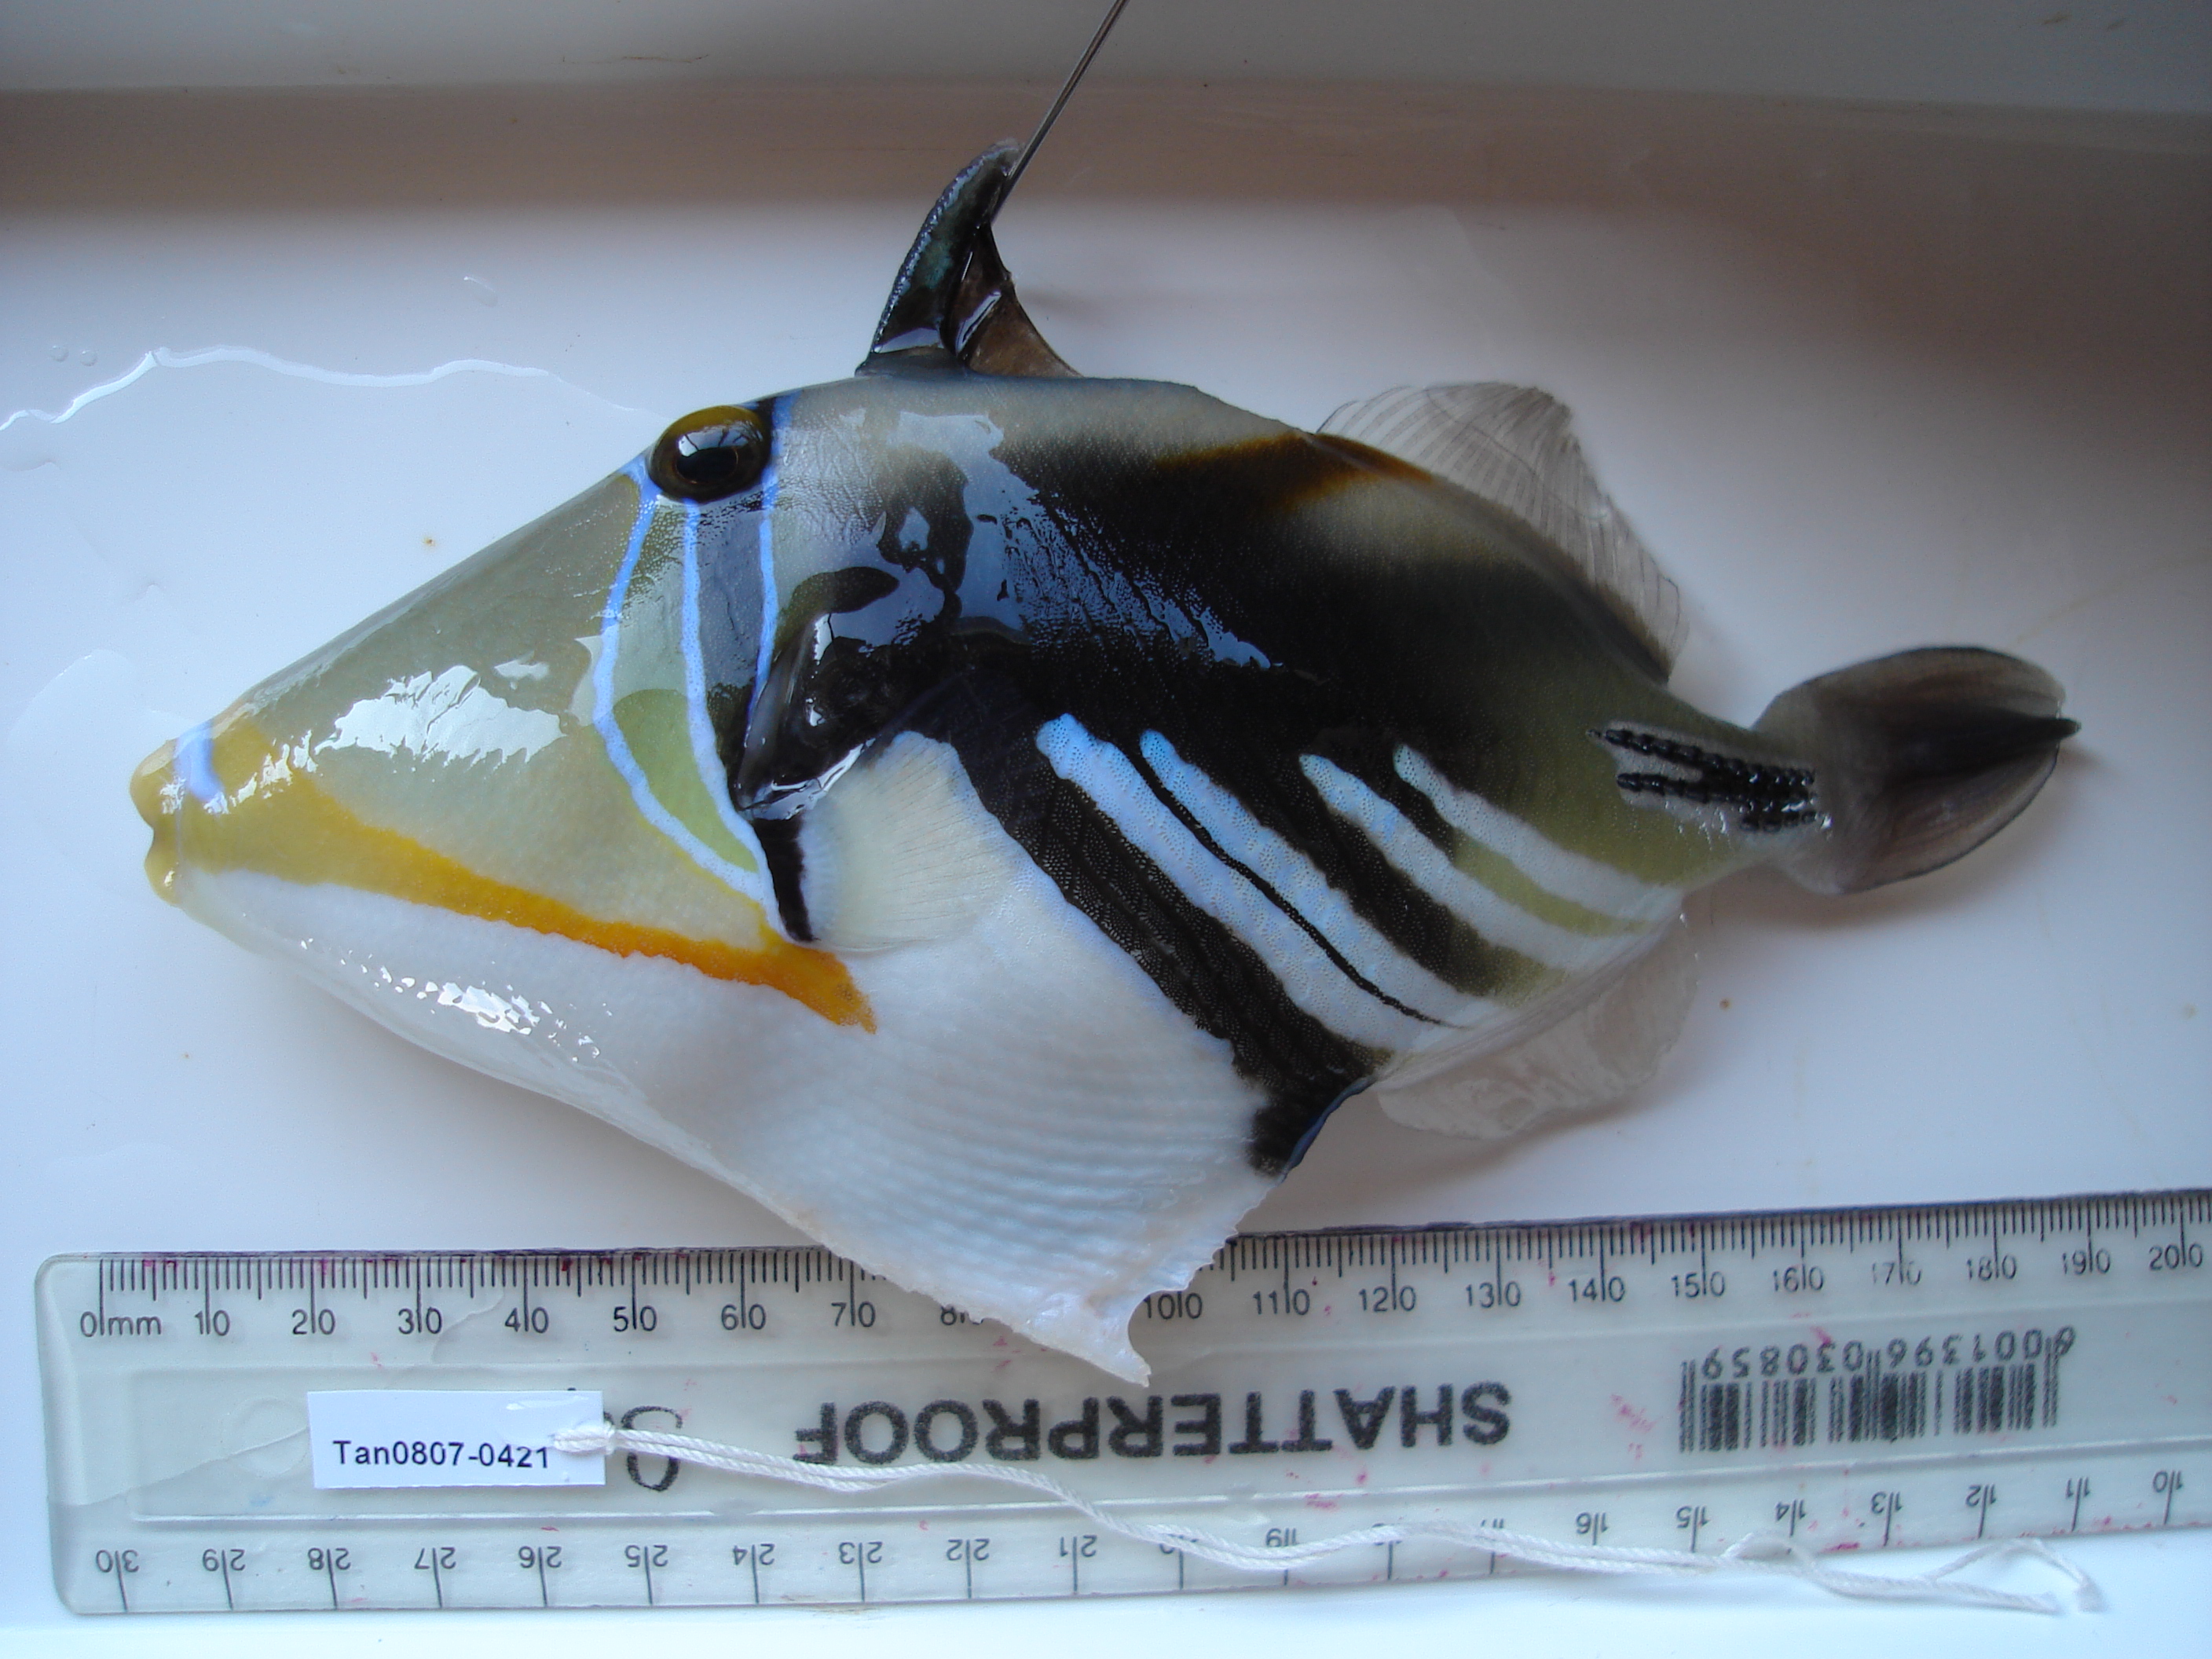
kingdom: Animalia
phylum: Chordata
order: Tetraodontiformes
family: Balistidae
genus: Rhinecanthus
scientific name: Rhinecanthus aculeatus
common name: White-banded triggerfish
